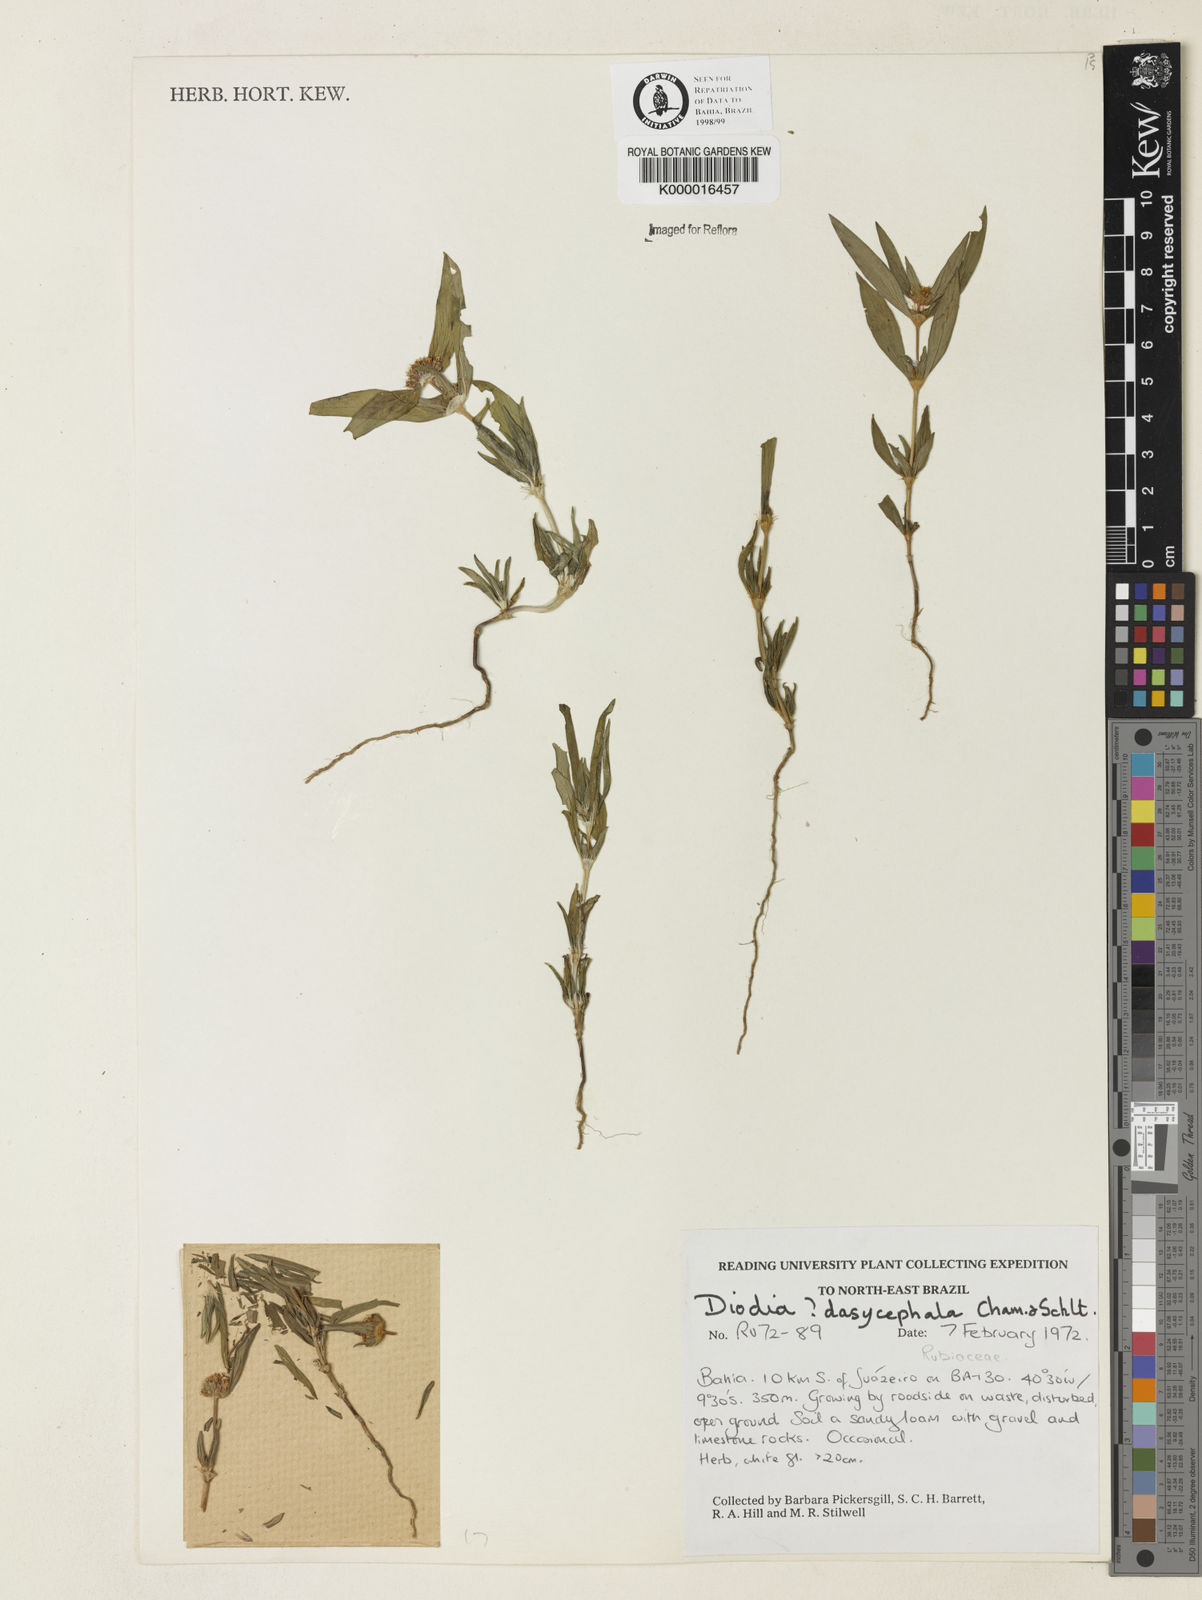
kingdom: Plantae
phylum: Tracheophyta
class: Magnoliopsida
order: Gentianales
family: Rubiaceae
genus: Spermacoce
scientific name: Spermacoce dasycephala
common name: False buttonweed
